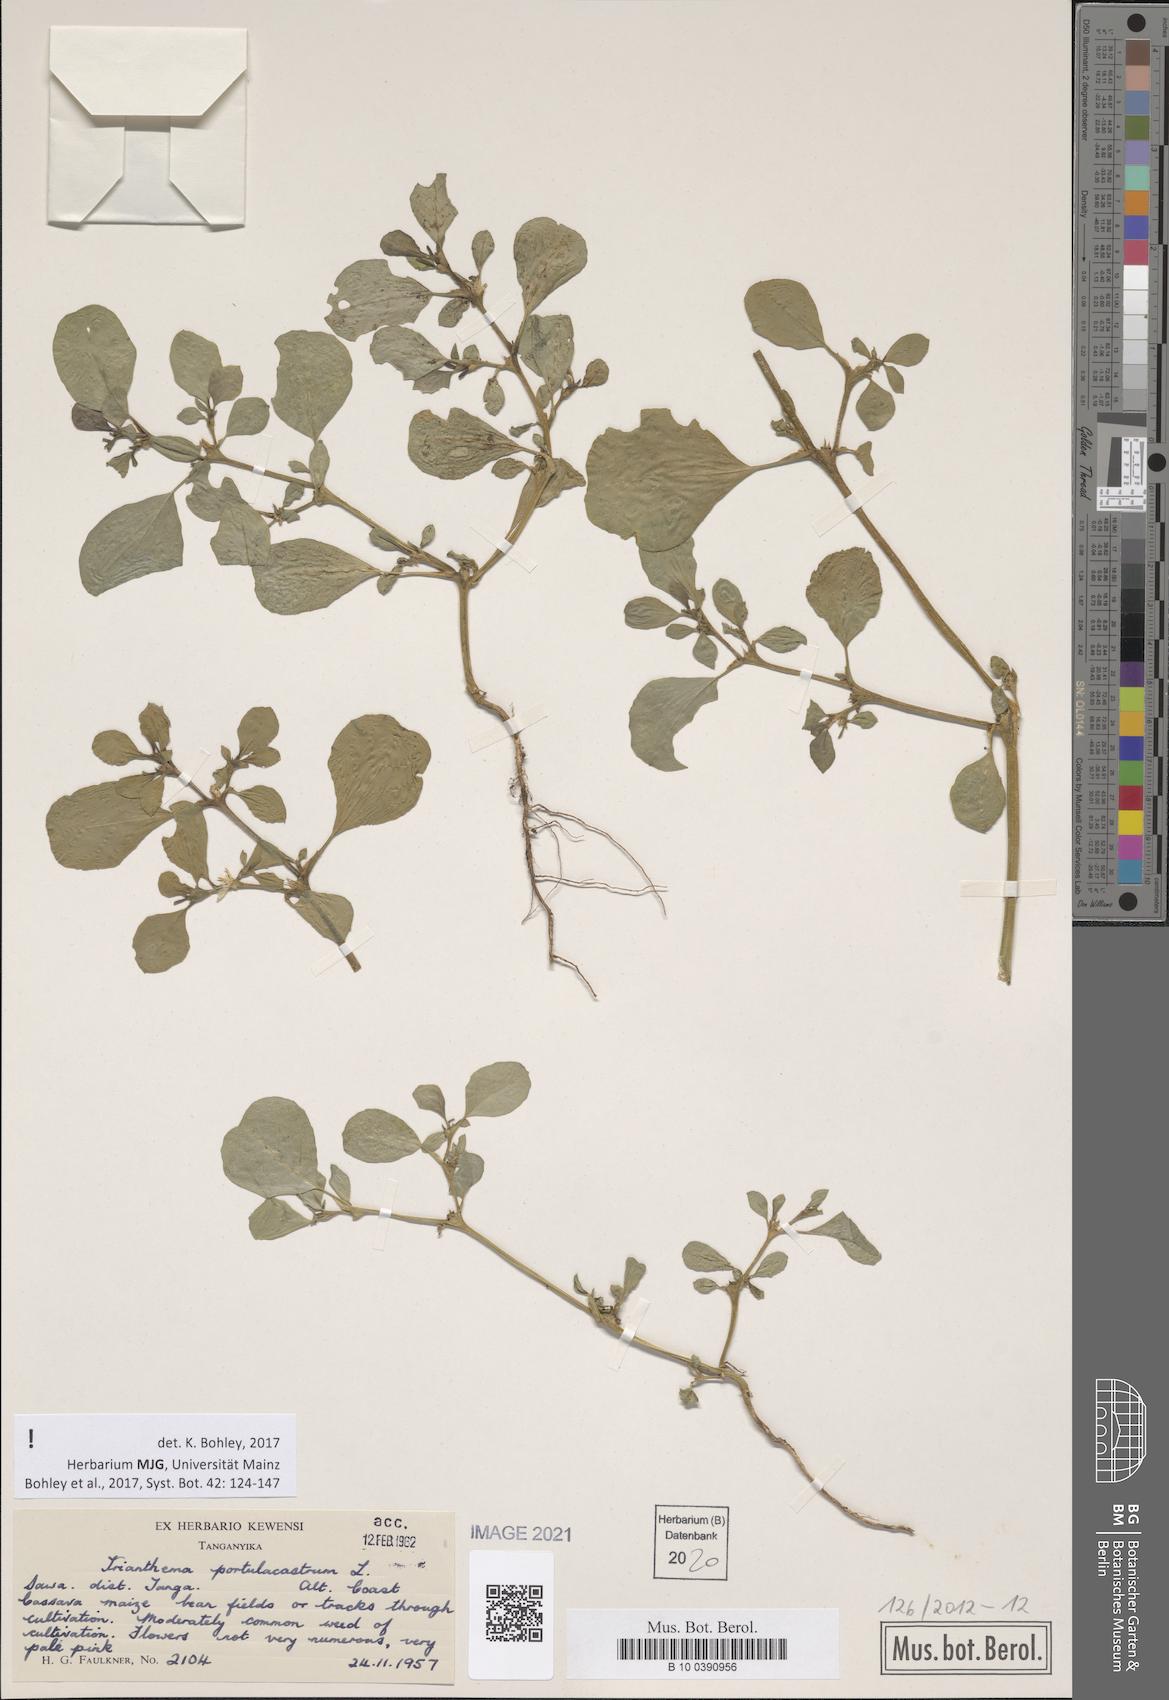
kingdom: Plantae
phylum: Tracheophyta
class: Magnoliopsida
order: Caryophyllales
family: Aizoaceae
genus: Trianthema
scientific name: Trianthema portulacastrum
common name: Desert horsepurslane
